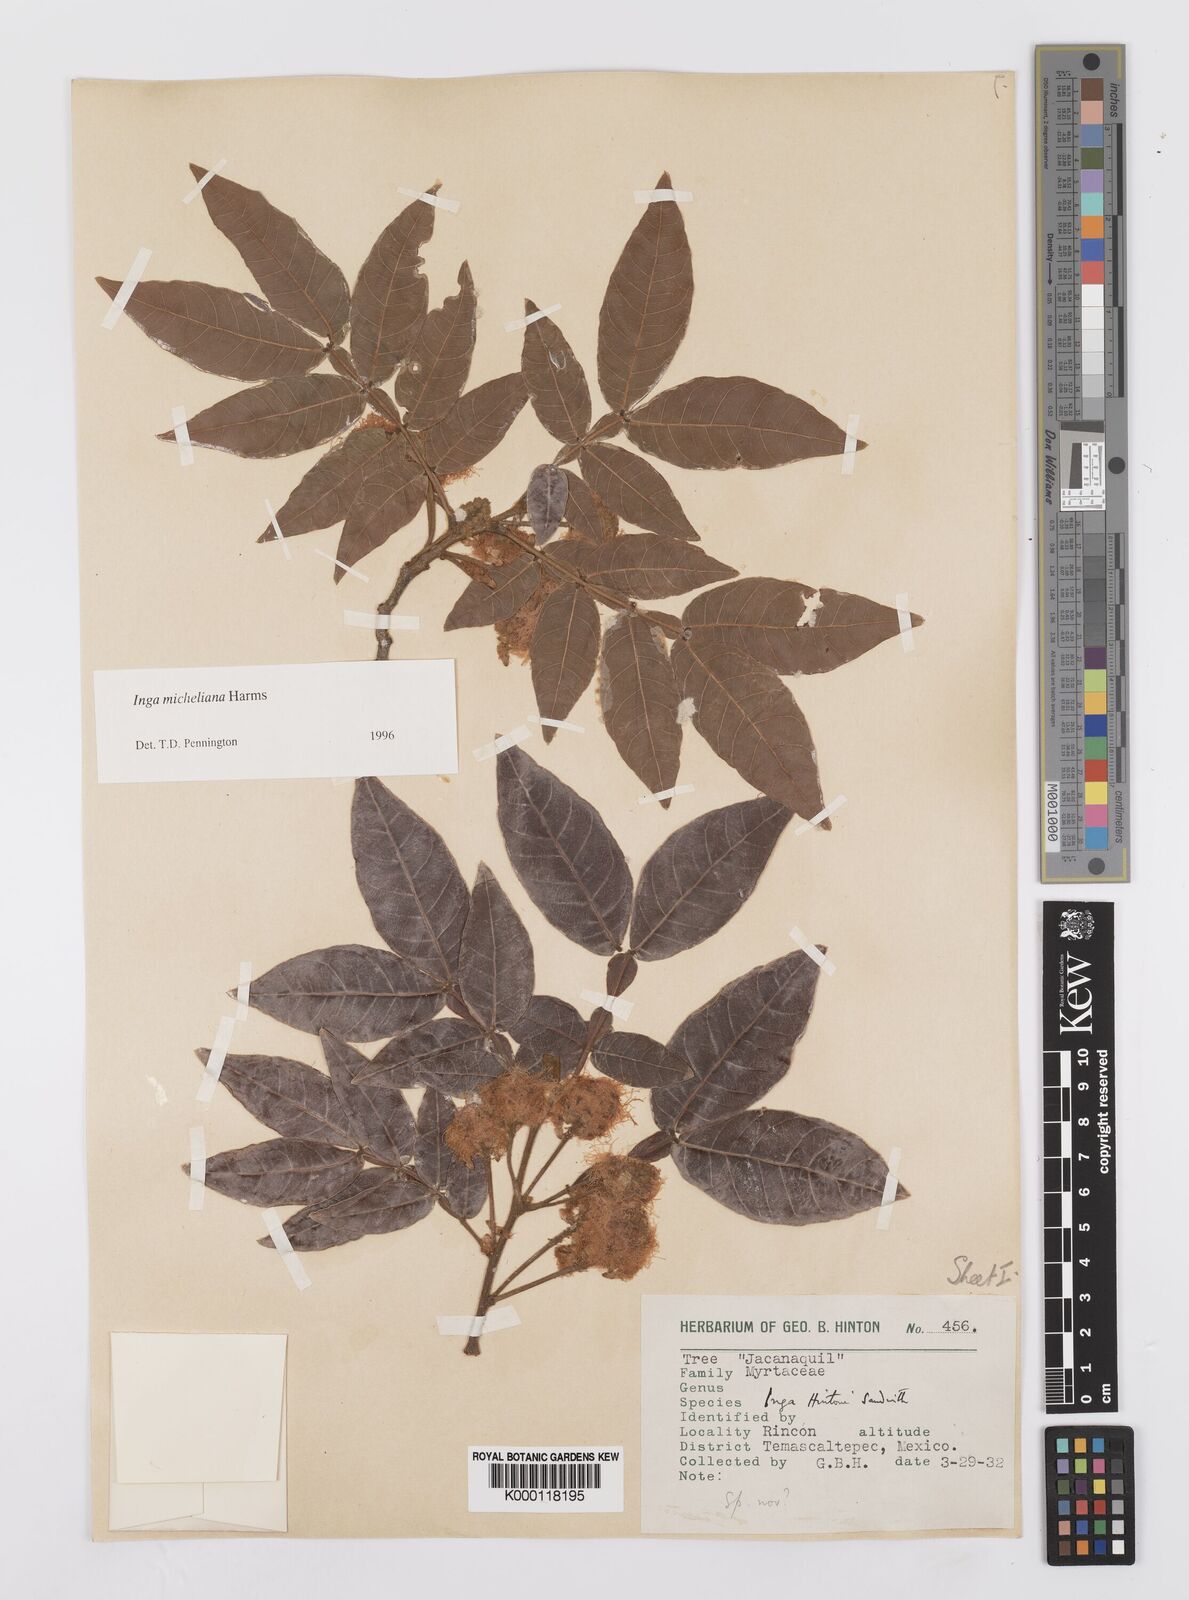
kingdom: Plantae
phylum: Tracheophyta
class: Magnoliopsida
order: Fabales
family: Fabaceae
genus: Inga
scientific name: Inga flexuosa
